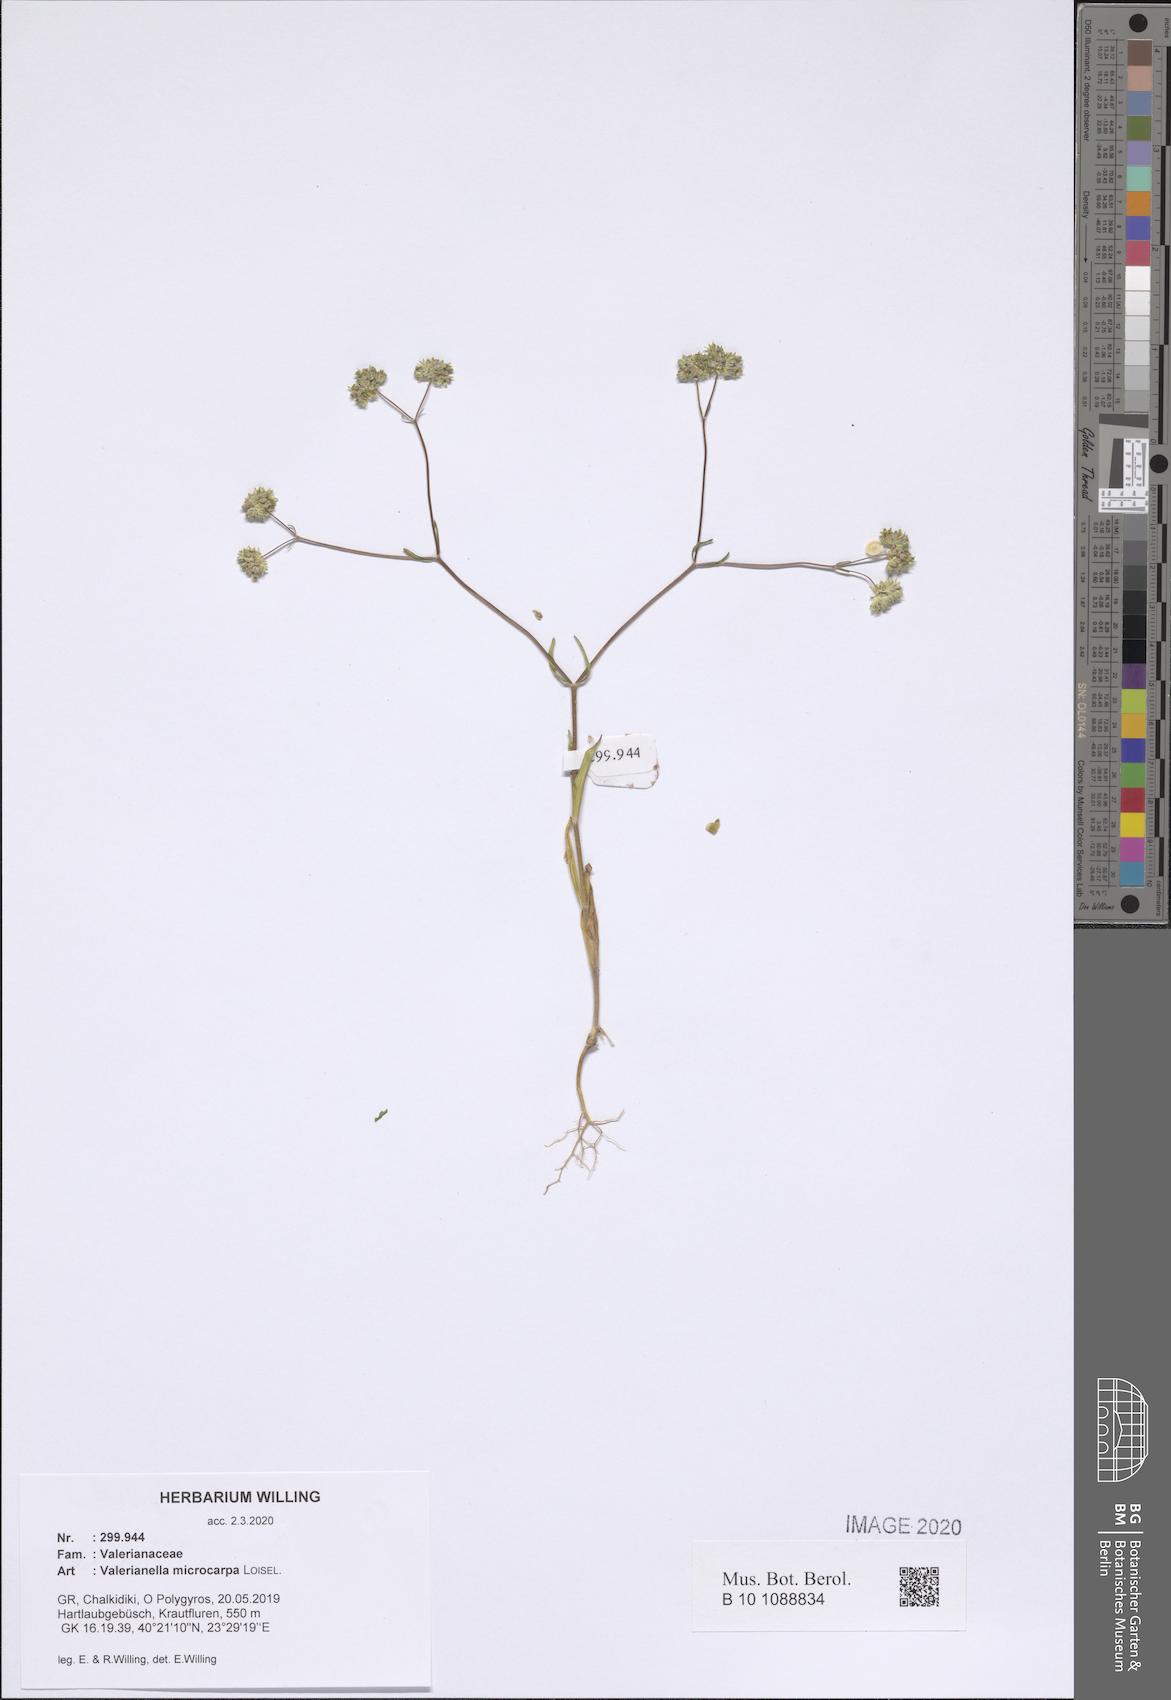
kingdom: Plantae
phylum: Tracheophyta
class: Magnoliopsida
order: Dipsacales
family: Caprifoliaceae
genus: Valerianella
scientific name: Valerianella microcarpa
